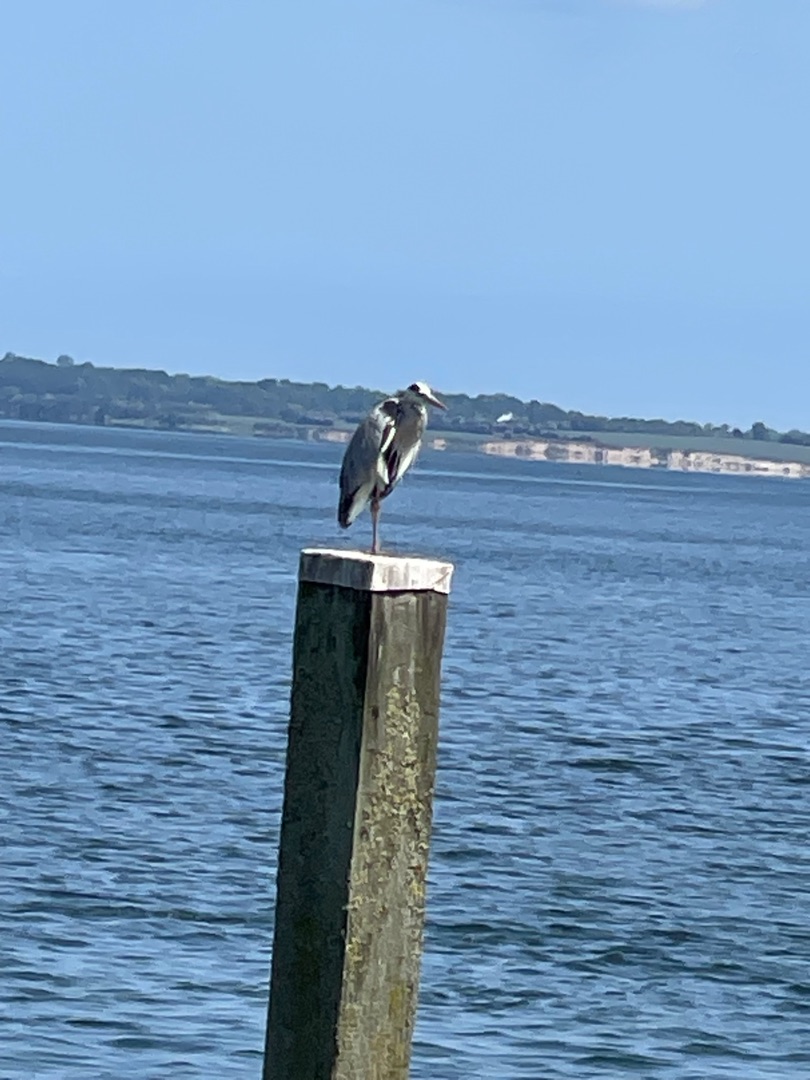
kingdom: Animalia
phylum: Chordata
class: Aves
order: Pelecaniformes
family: Ardeidae
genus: Ardea
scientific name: Ardea cinerea
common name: Fiskehejre
